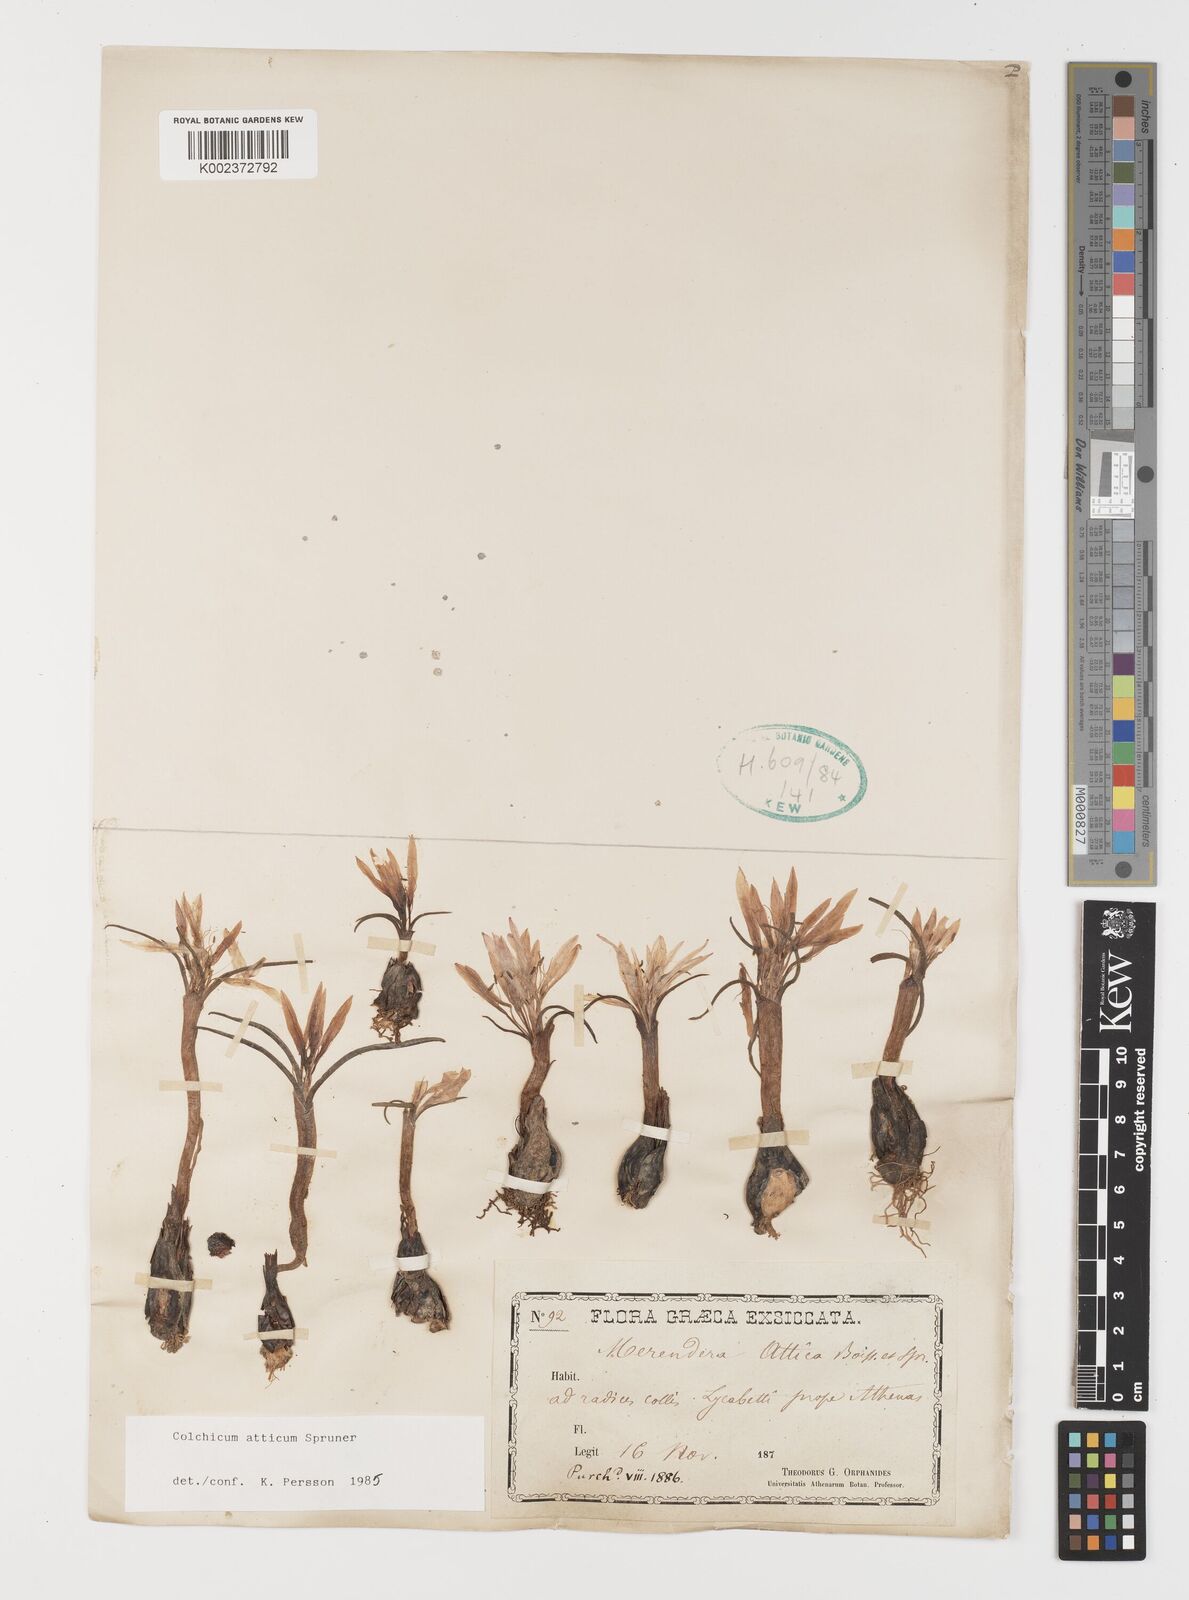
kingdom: Plantae
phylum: Tracheophyta
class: Liliopsida
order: Liliales
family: Colchicaceae
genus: Colchicum
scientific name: Colchicum atticum
